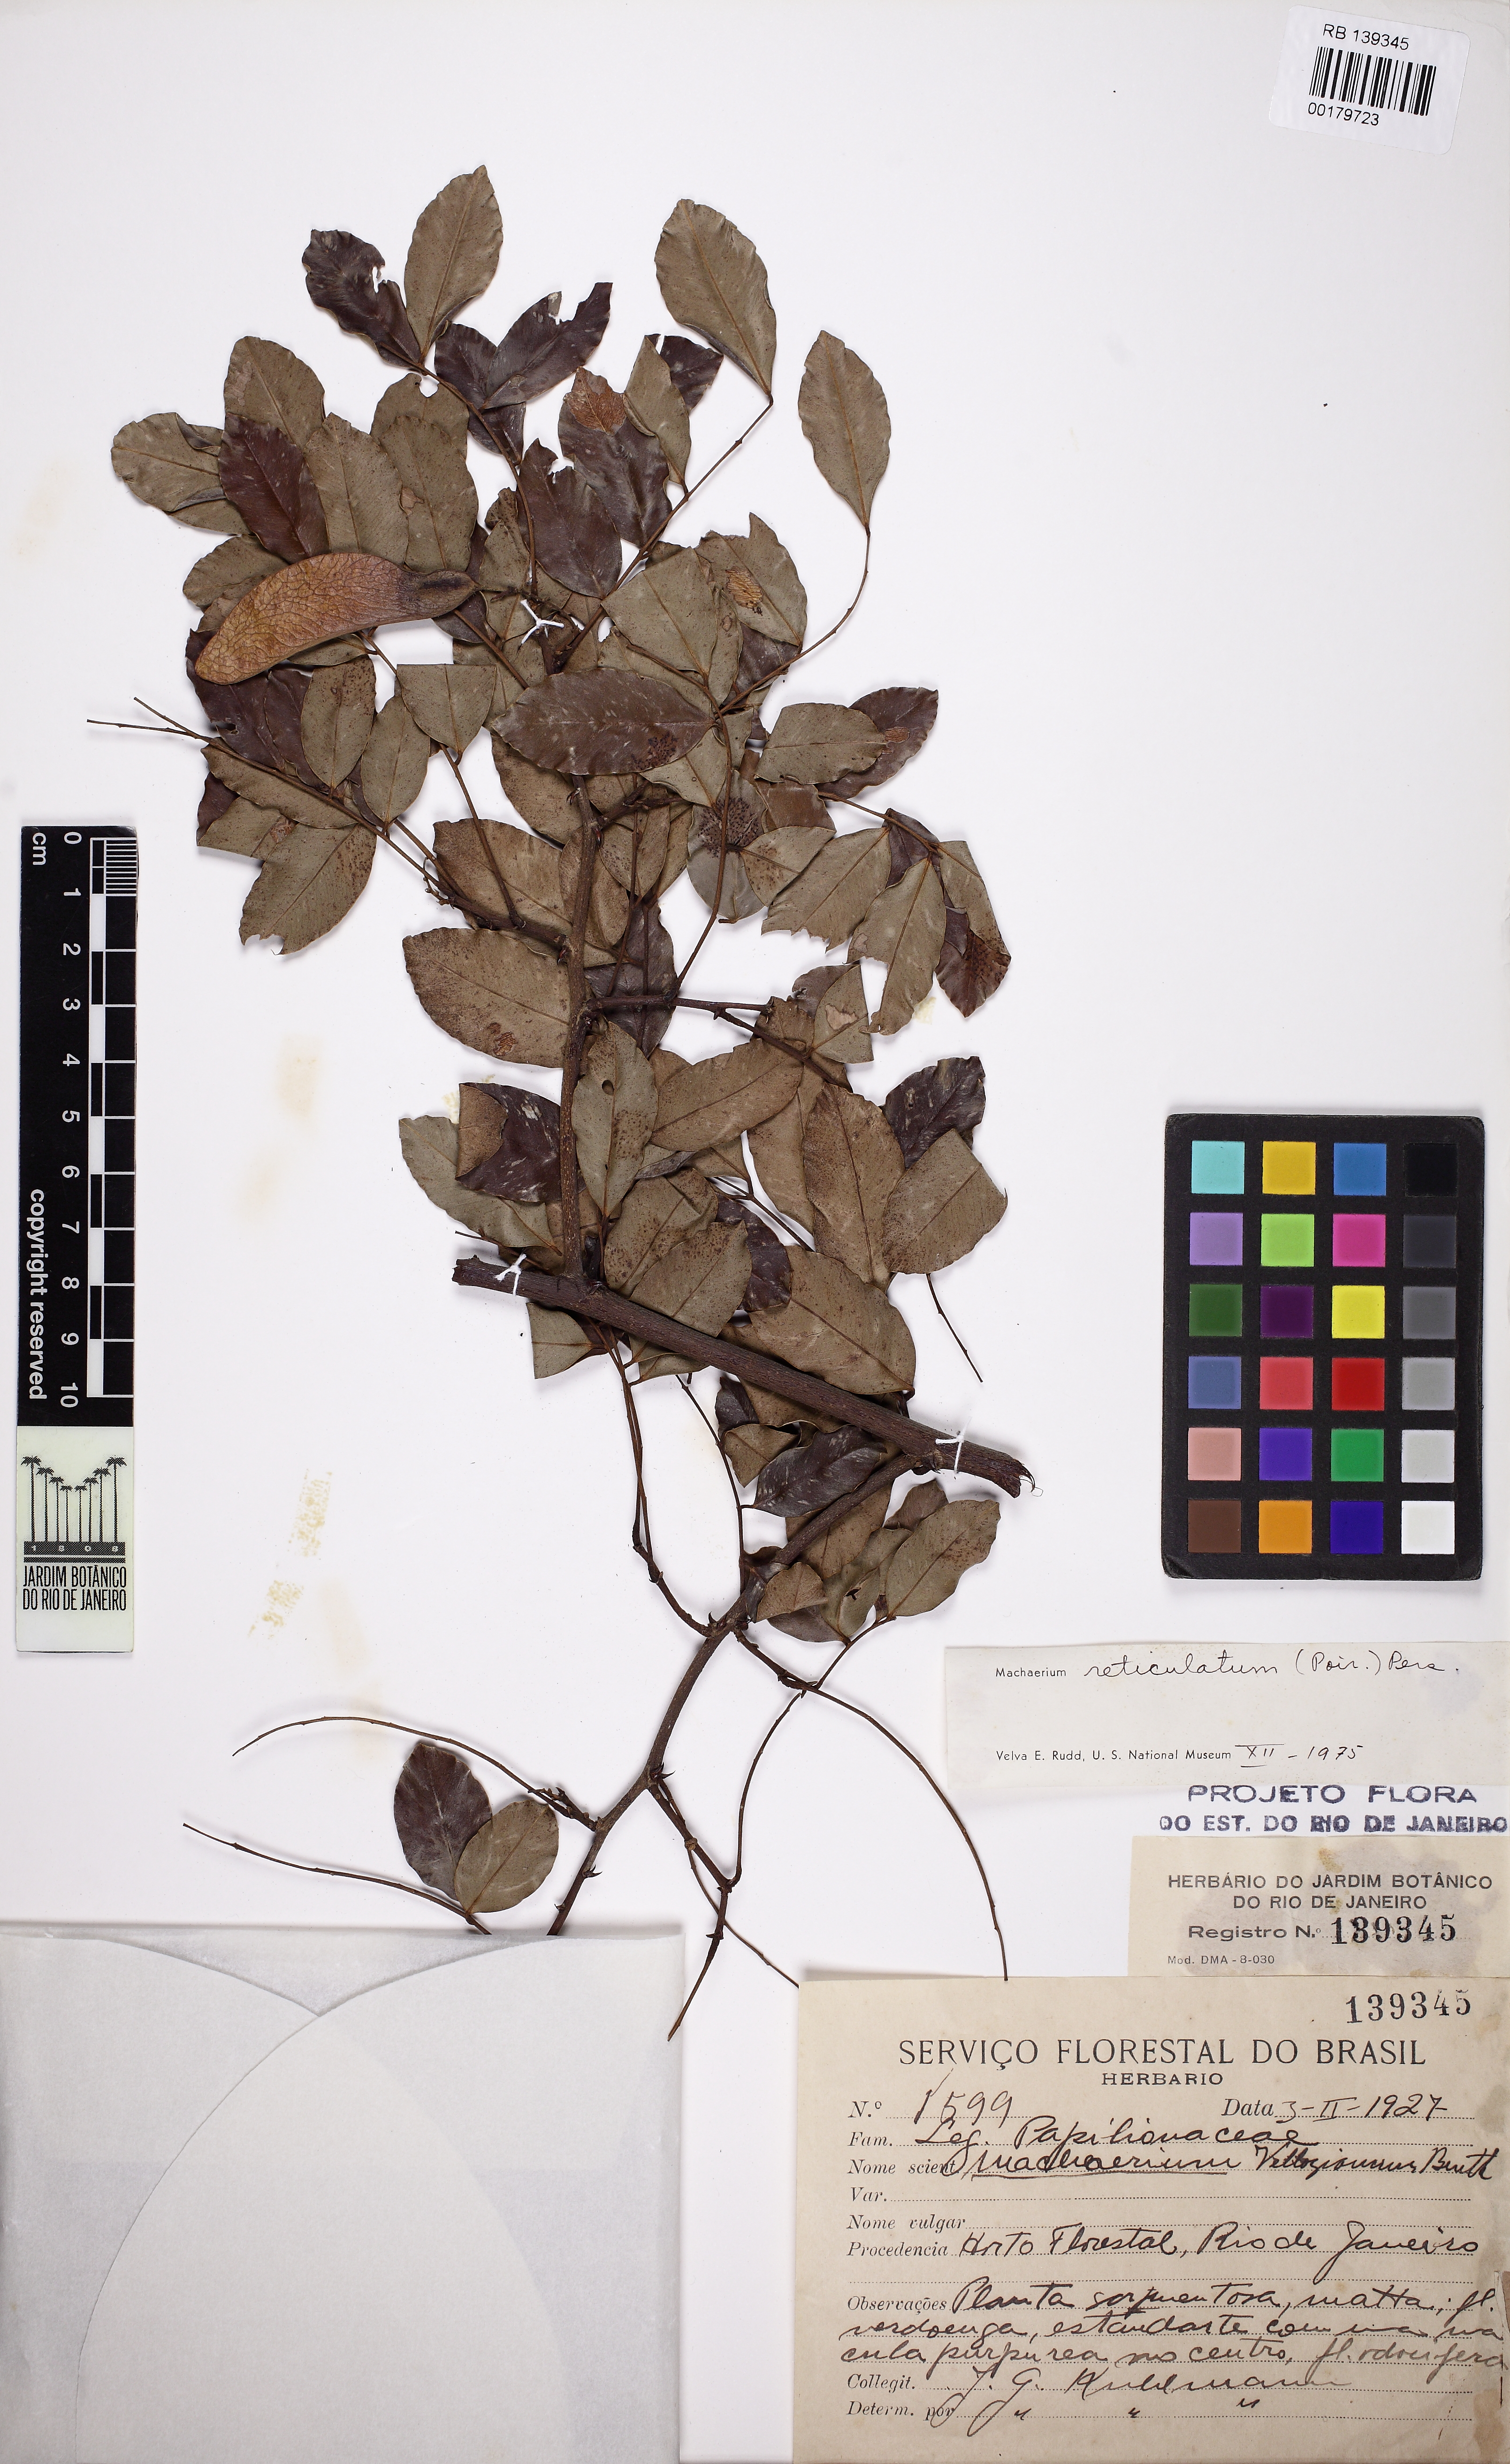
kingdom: Plantae
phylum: Tracheophyta
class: Magnoliopsida
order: Fabales
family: Fabaceae
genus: Machaerium
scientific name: Machaerium reticulatum
